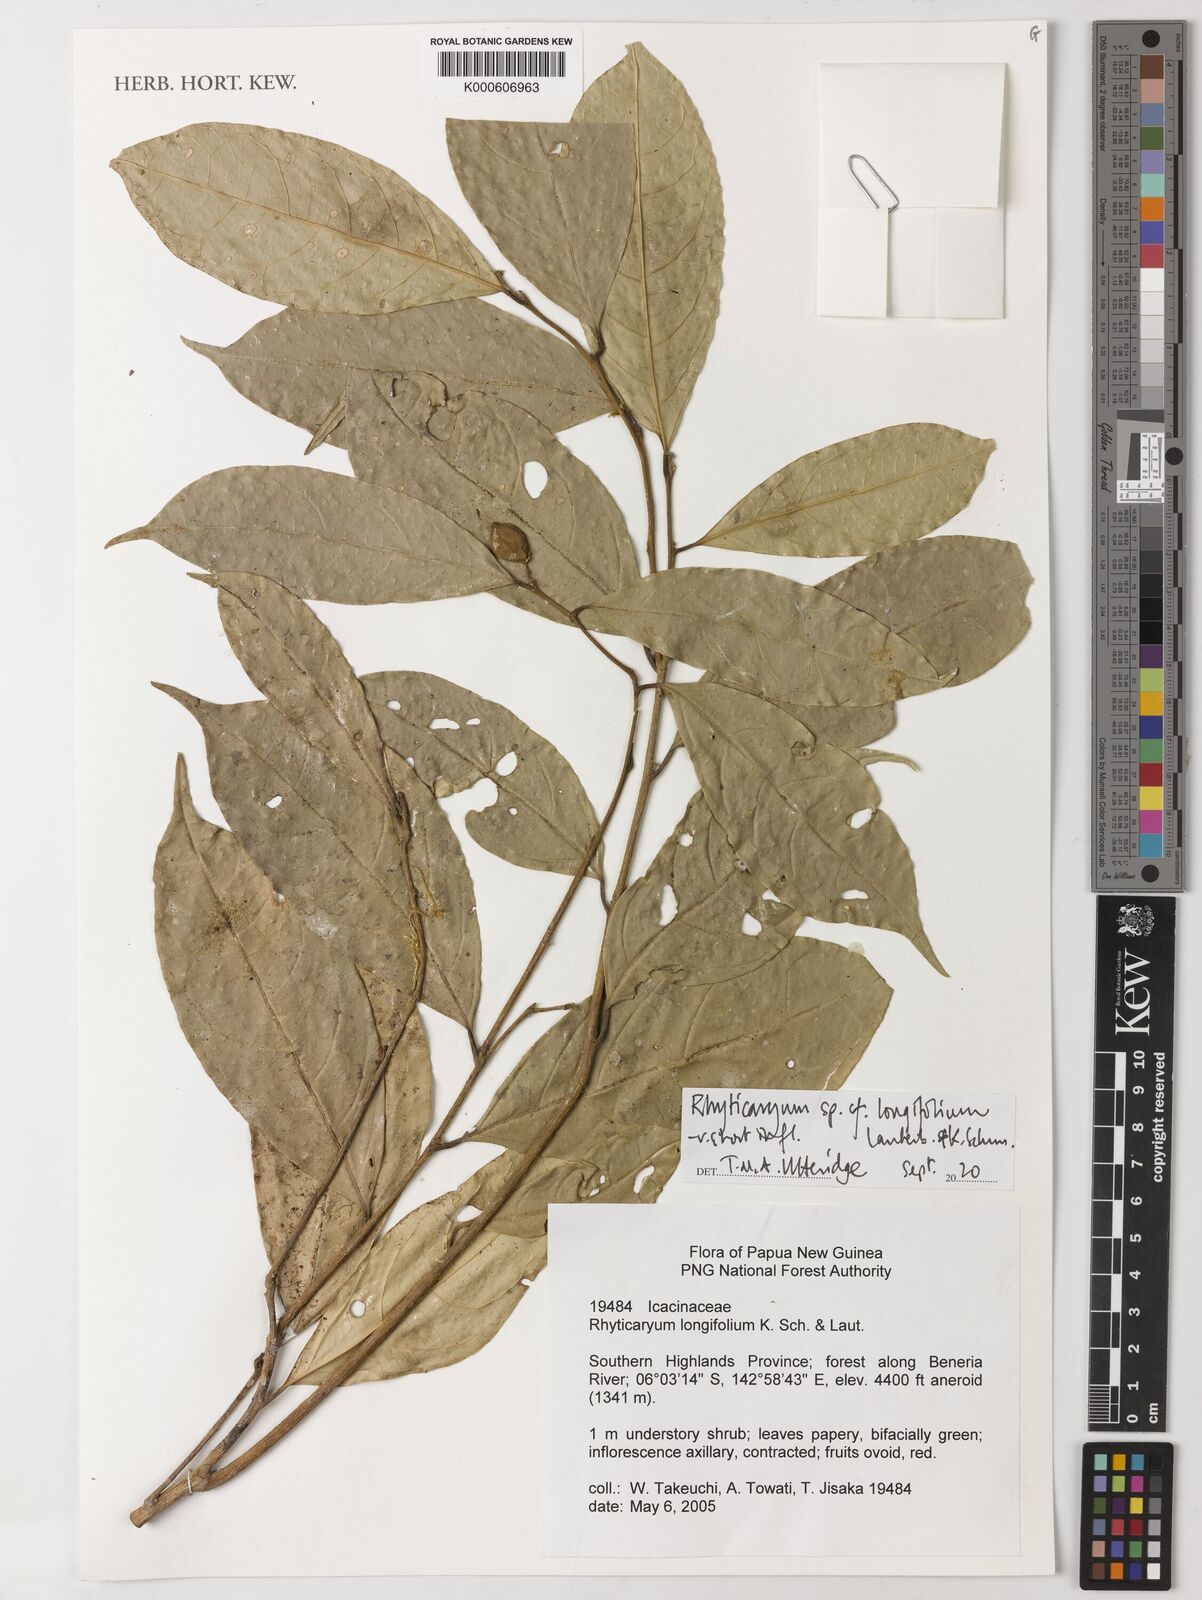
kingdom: Plantae
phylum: Tracheophyta
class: Magnoliopsida
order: Icacinales
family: Icacinaceae
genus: Ryticaryum
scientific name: Ryticaryum
